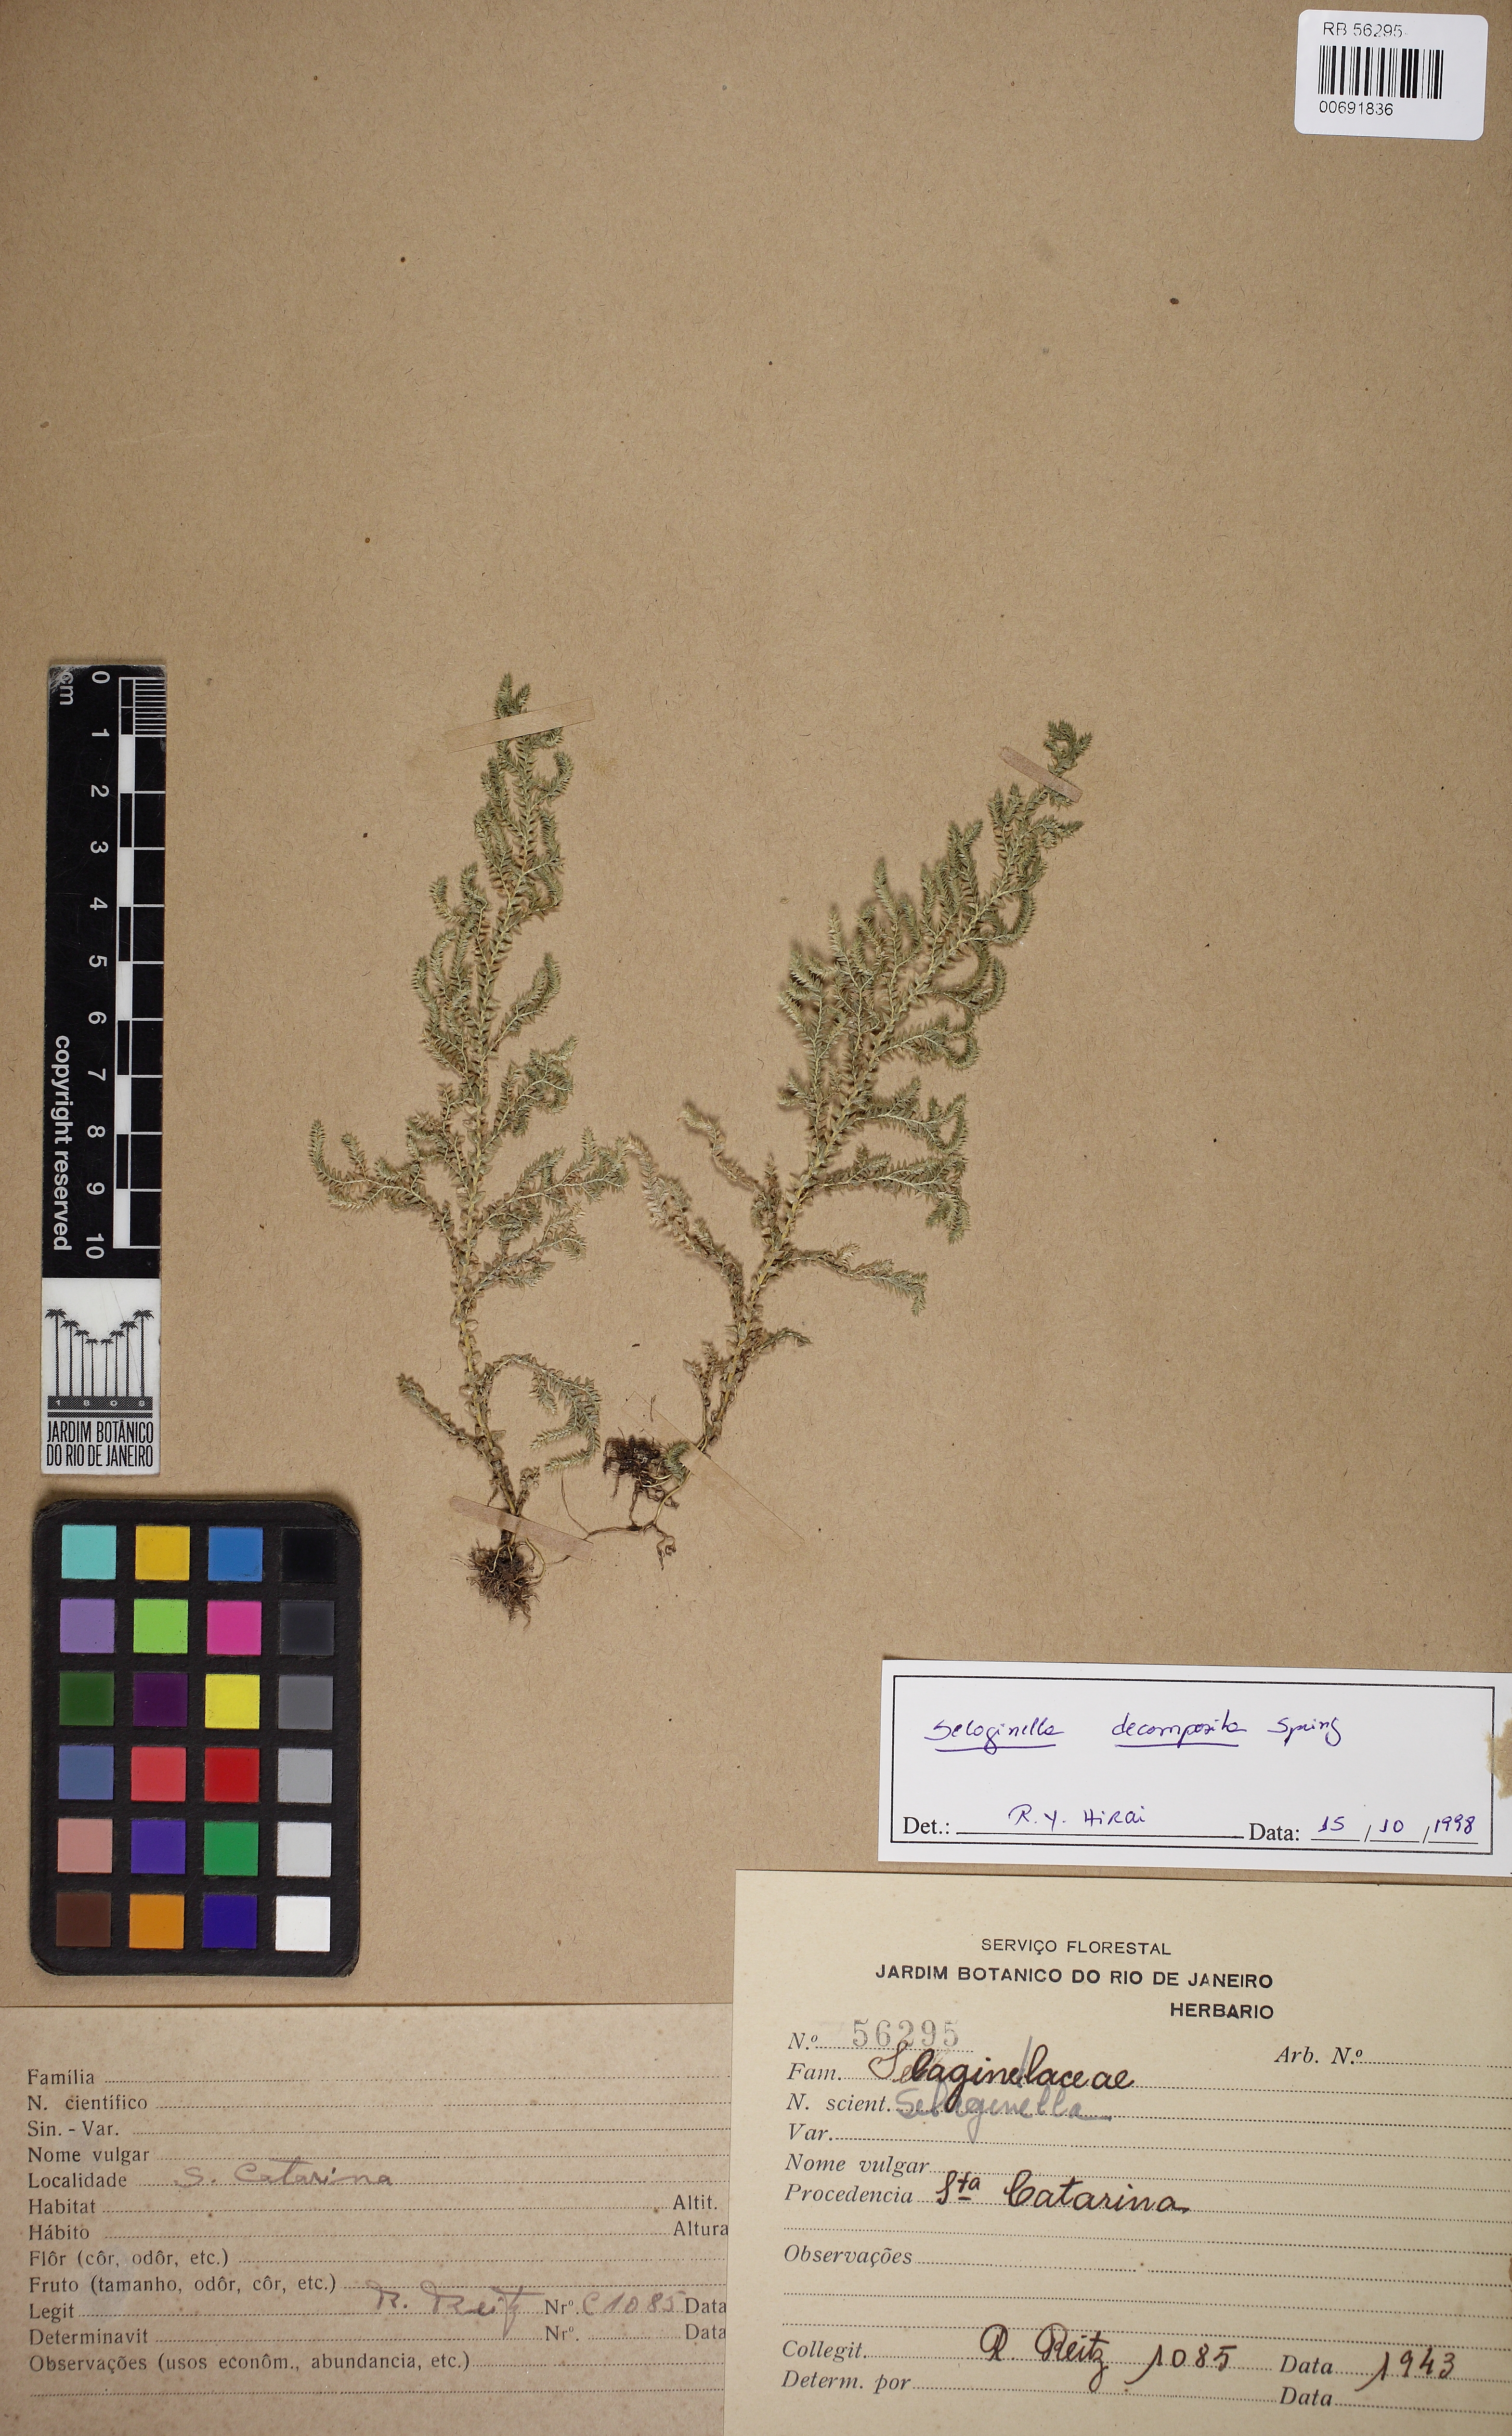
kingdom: Plantae
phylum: Tracheophyta
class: Lycopodiopsida
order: Selaginellales
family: Selaginellaceae
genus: Selaginella
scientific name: Selaginella decomposita
